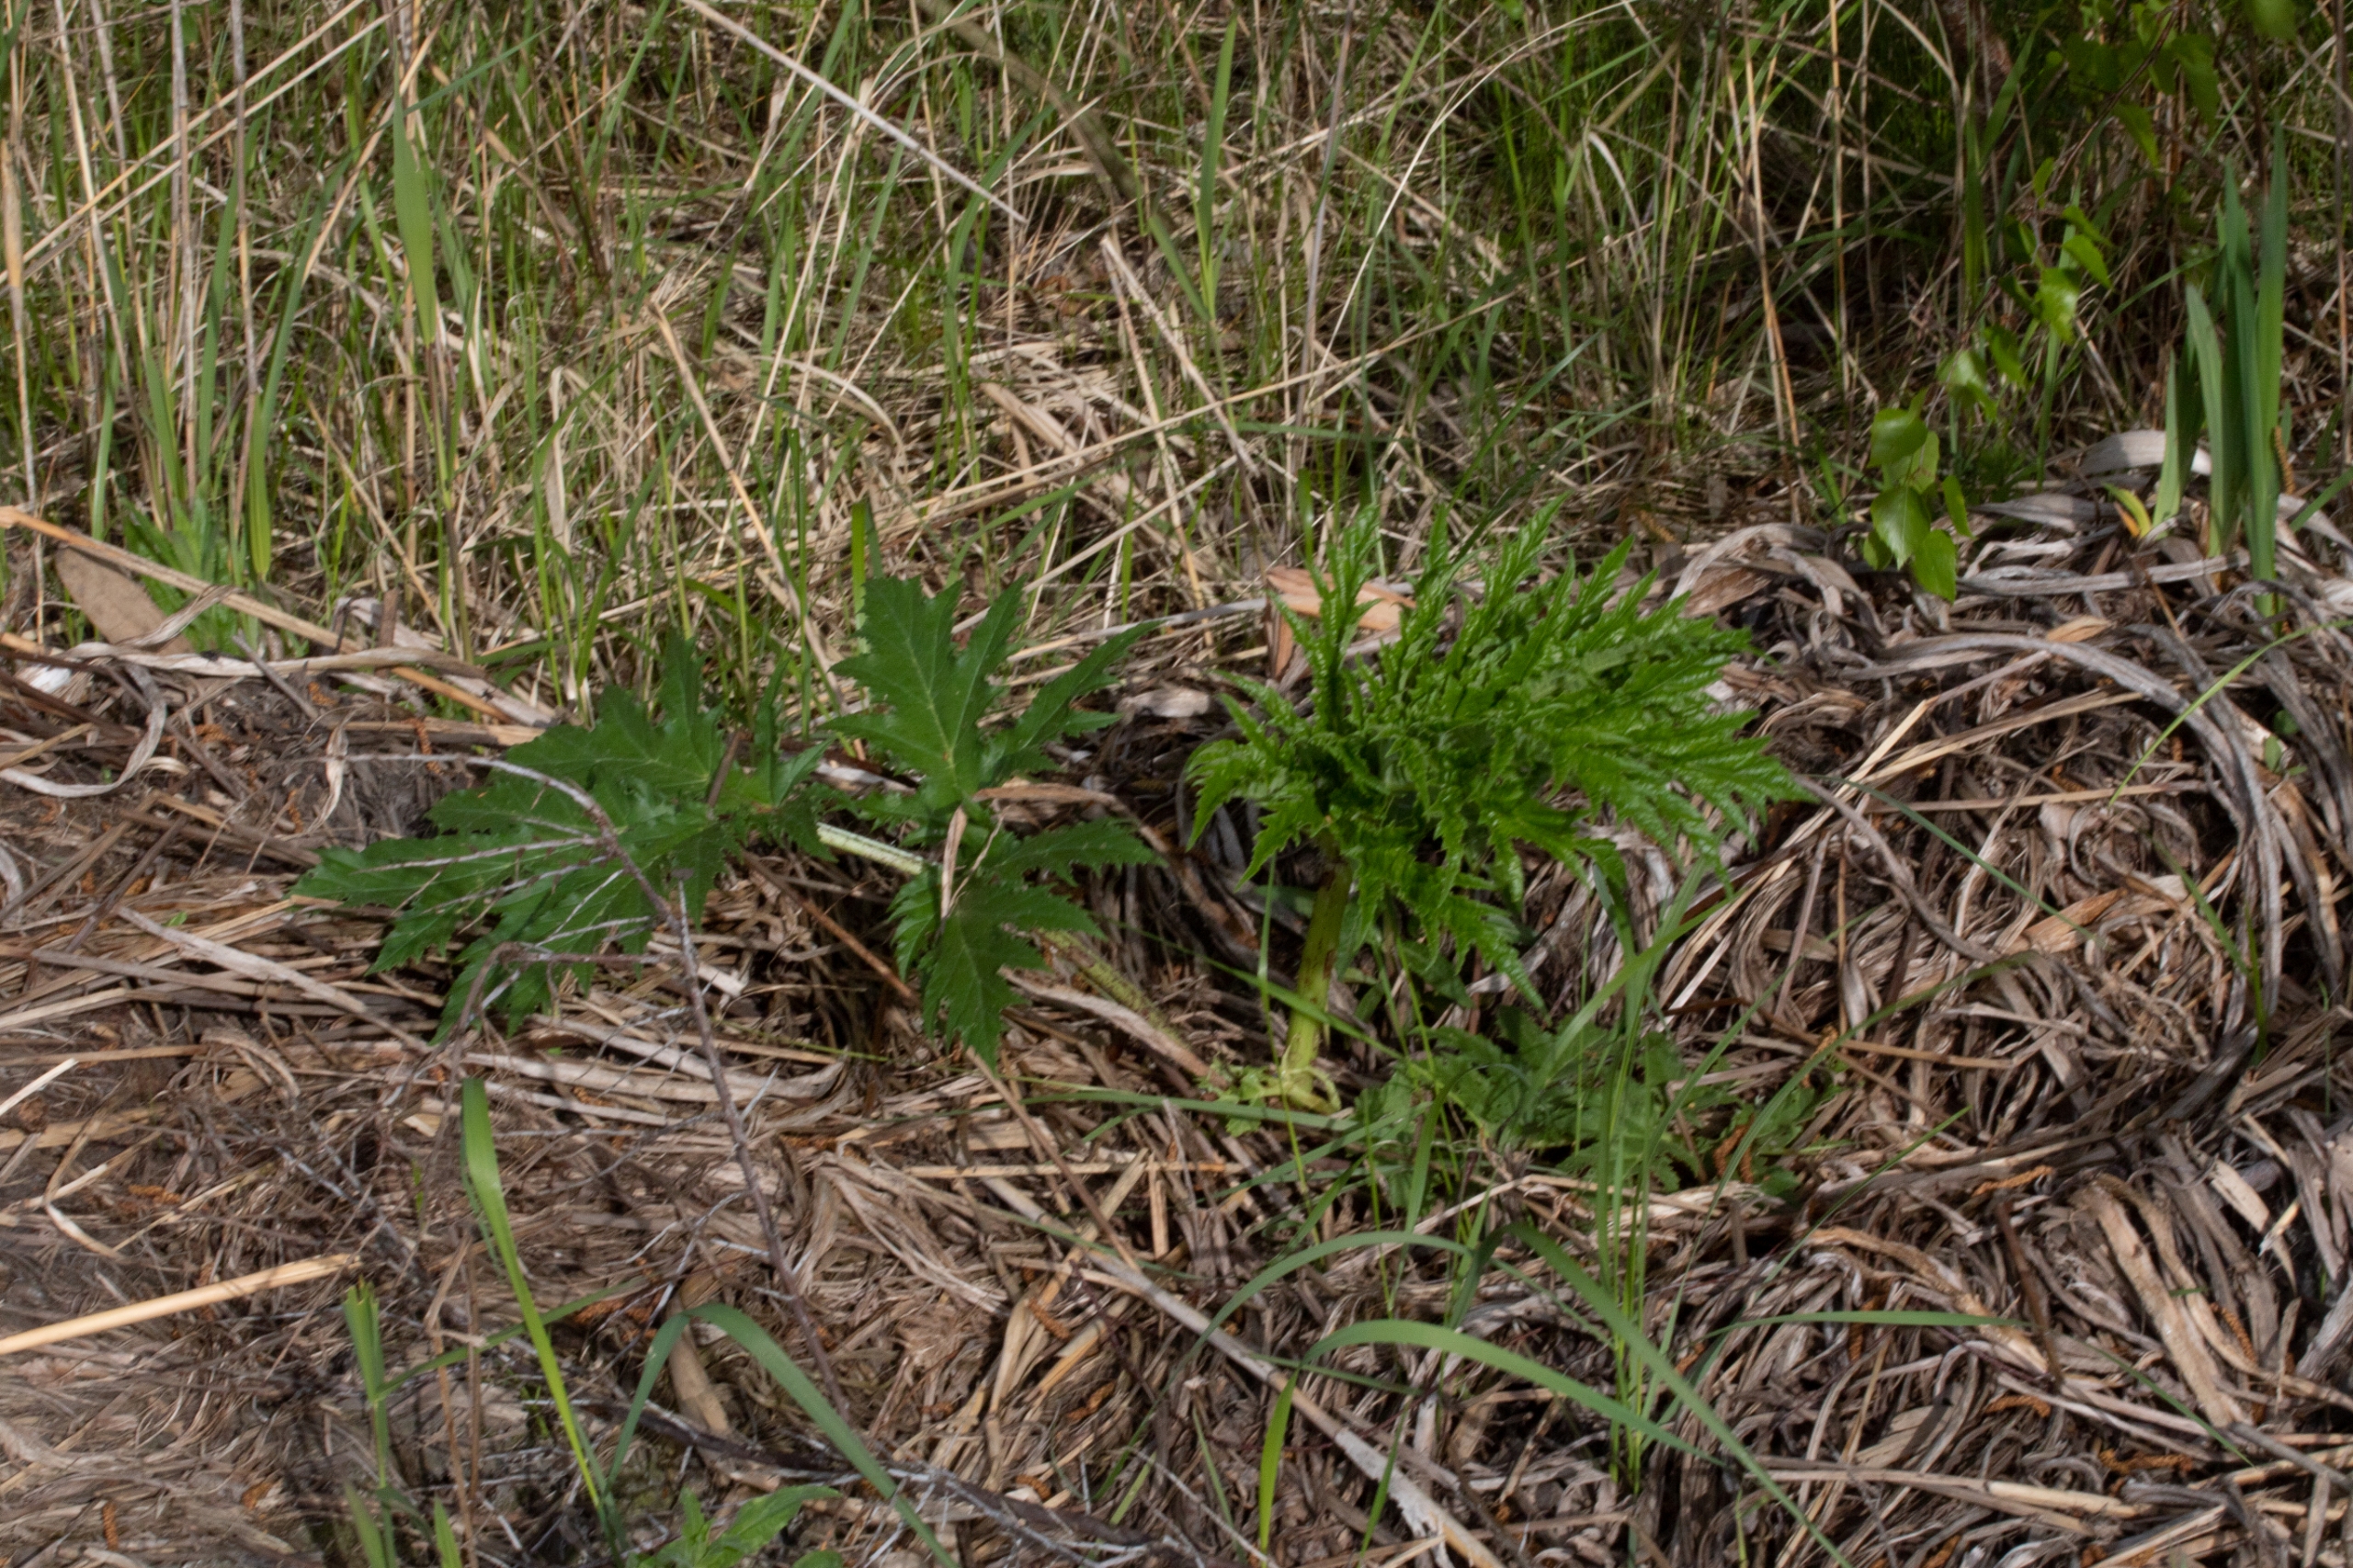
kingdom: Plantae
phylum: Tracheophyta
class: Magnoliopsida
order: Apiales
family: Apiaceae
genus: Heracleum
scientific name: Heracleum mantegazzianum
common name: Kæmpe-bjørneklo
